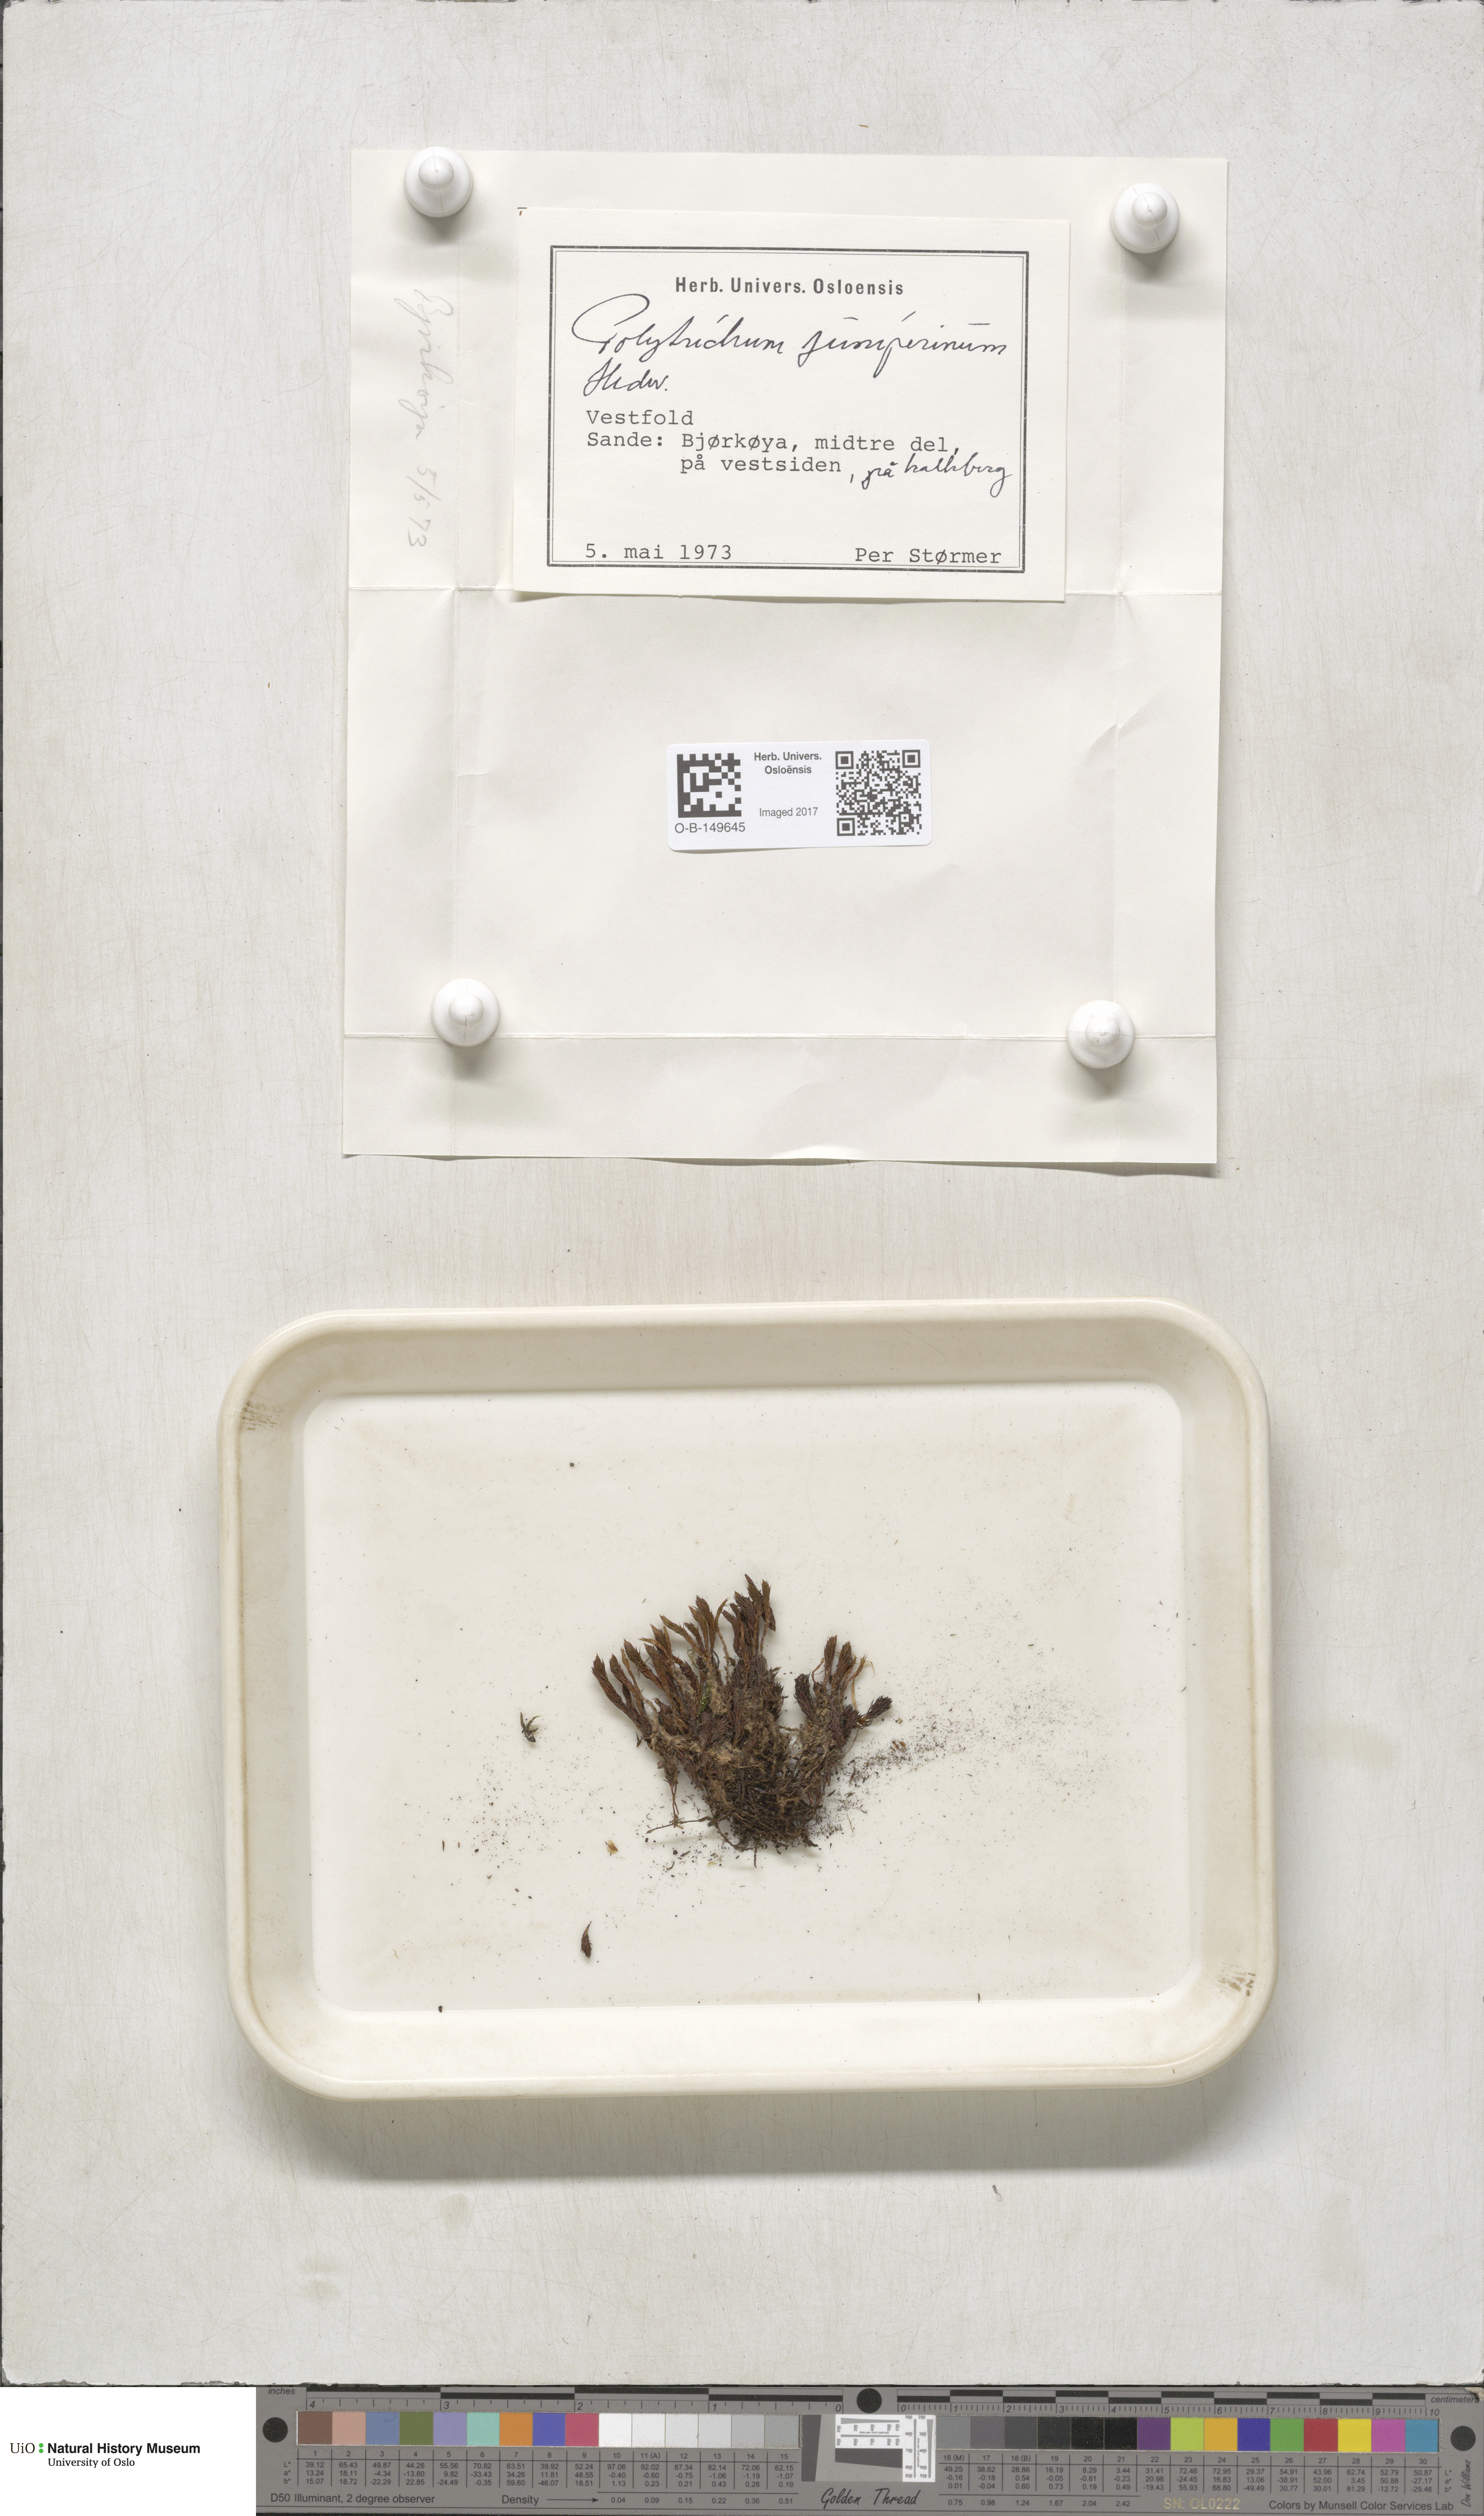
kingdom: Plantae
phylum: Bryophyta
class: Polytrichopsida
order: Polytrichales
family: Polytrichaceae
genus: Polytrichum
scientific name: Polytrichum juniperinum
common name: Juniper haircap moss
